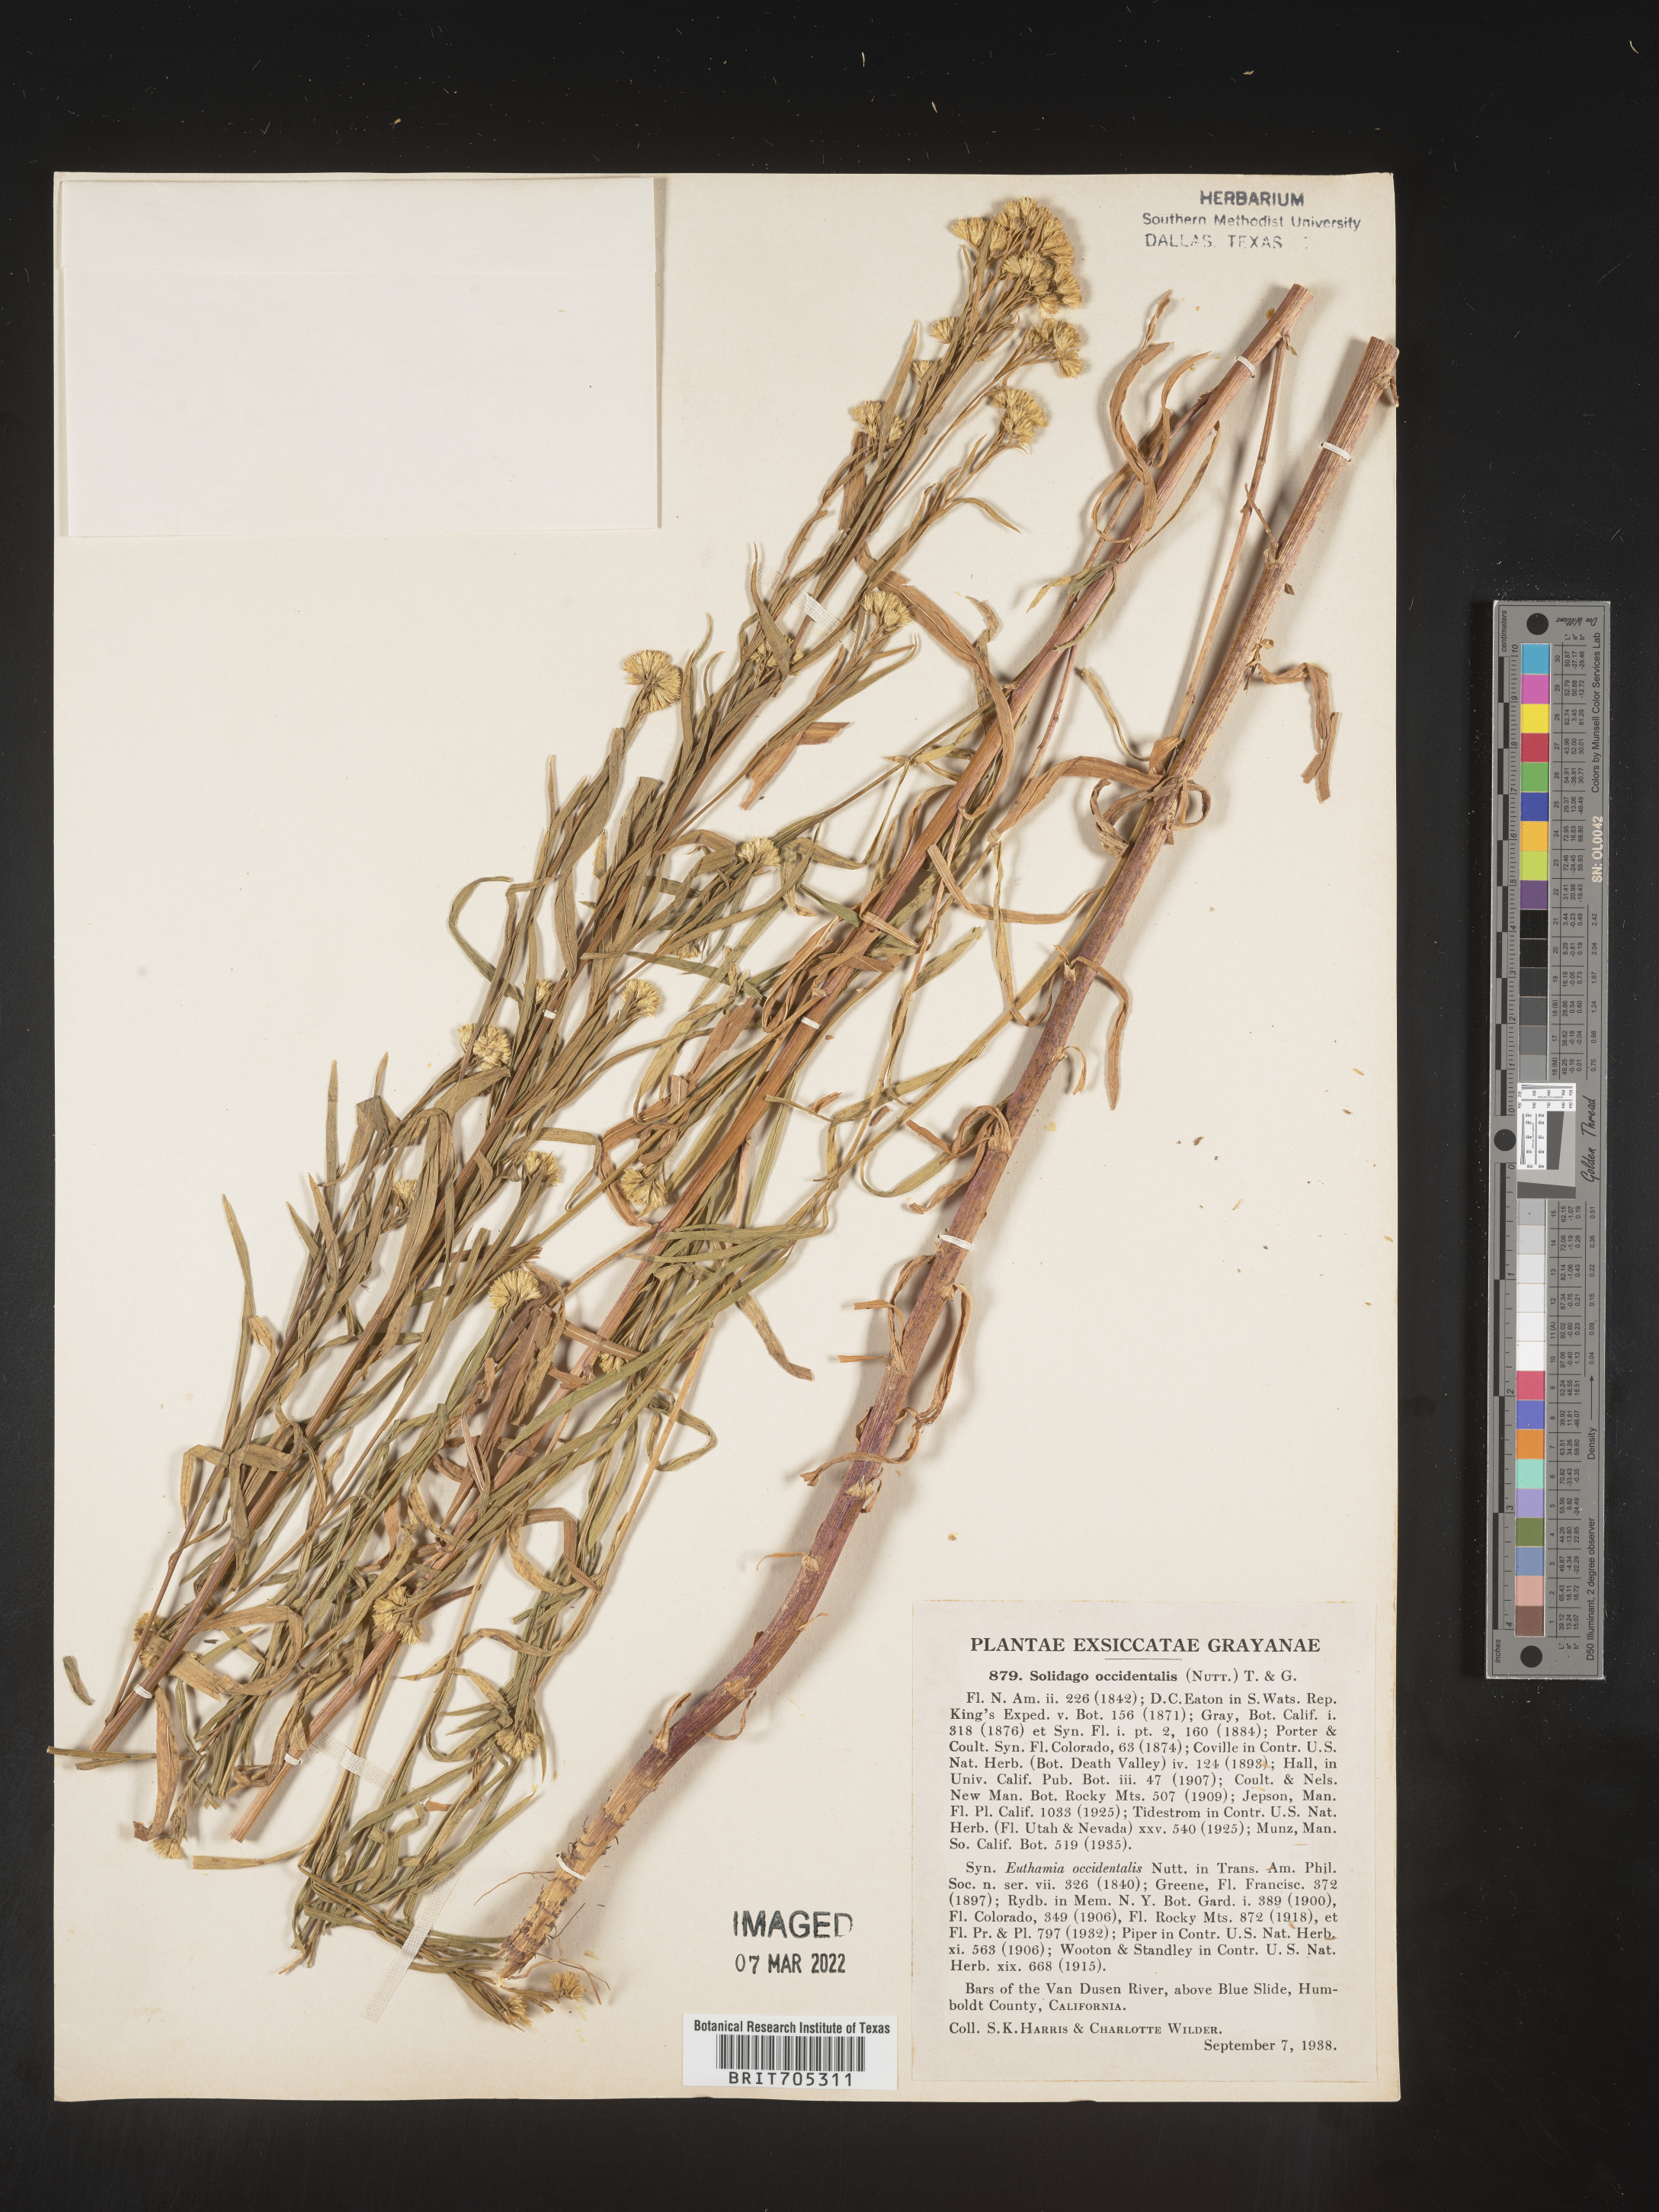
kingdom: Plantae
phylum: Tracheophyta
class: Magnoliopsida
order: Asterales
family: Asteraceae
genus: Euthamia
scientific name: Euthamia occidentalis
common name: Western goldentop
